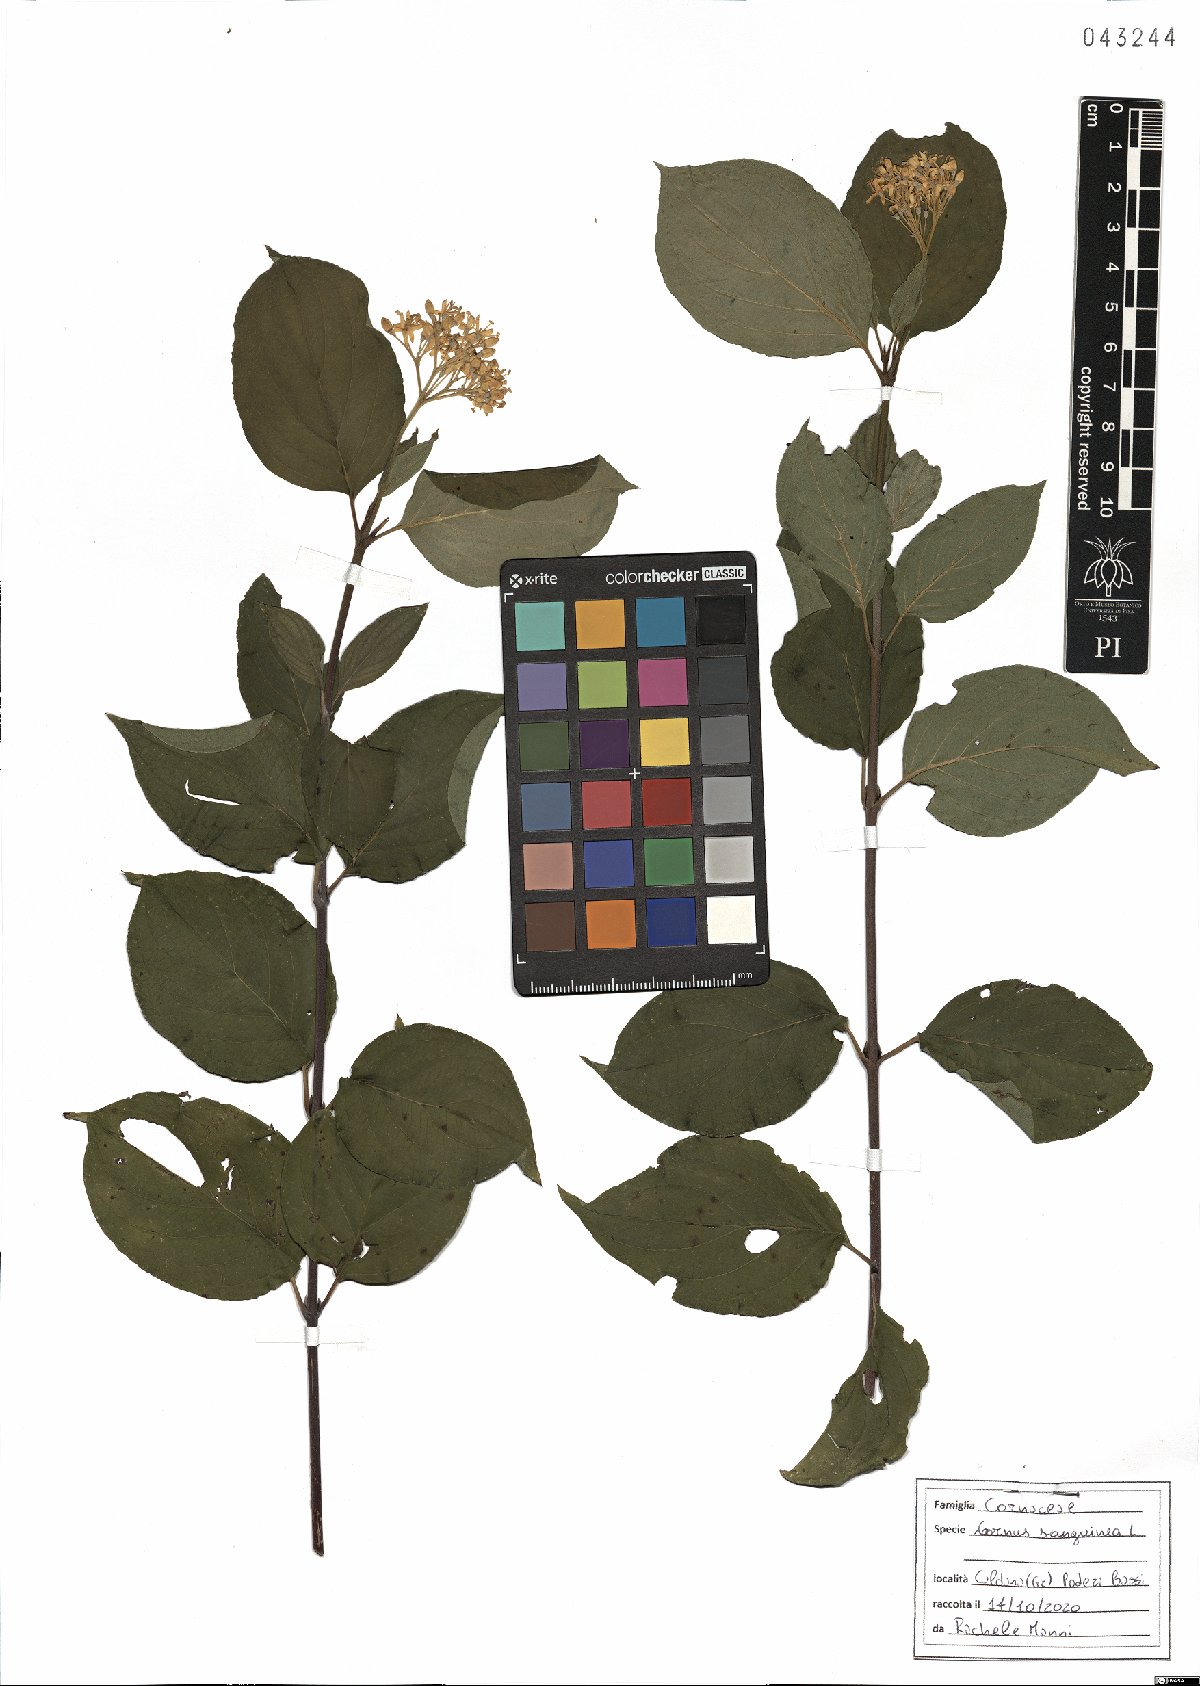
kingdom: Plantae
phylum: Tracheophyta
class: Magnoliopsida
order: Cornales
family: Cornaceae
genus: Cornus
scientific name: Cornus sanguinea
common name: Dogwood
